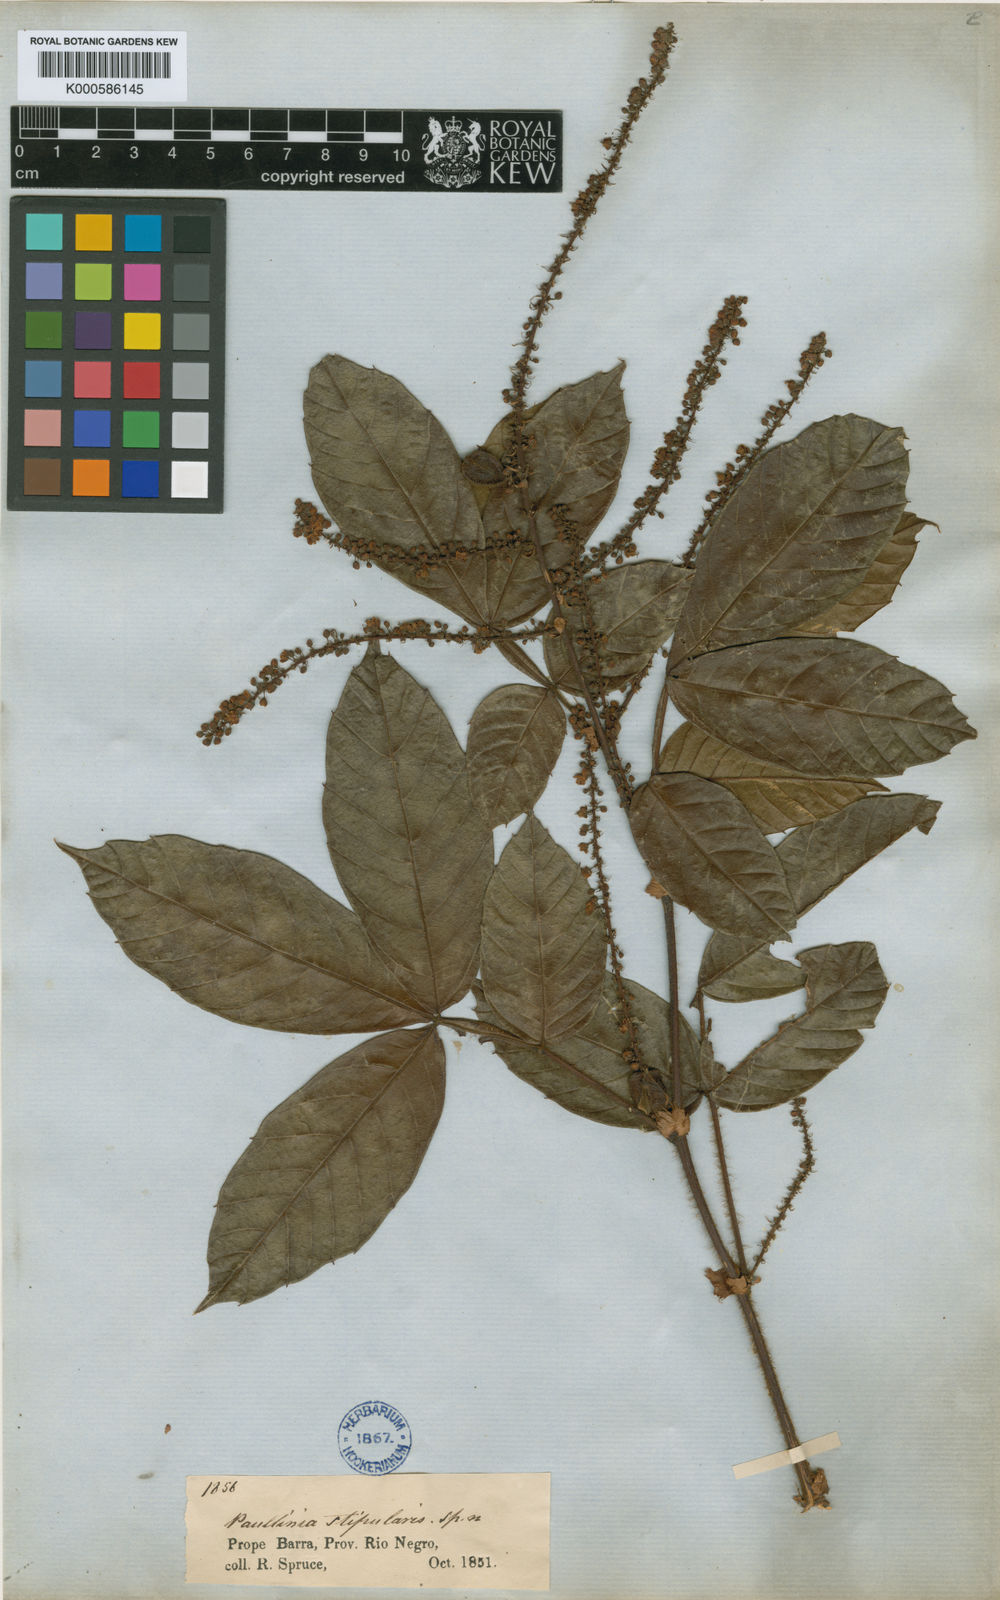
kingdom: Plantae
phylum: Tracheophyta
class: Magnoliopsida
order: Sapindales
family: Sapindaceae
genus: Paullinia
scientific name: Paullinia stipularis
